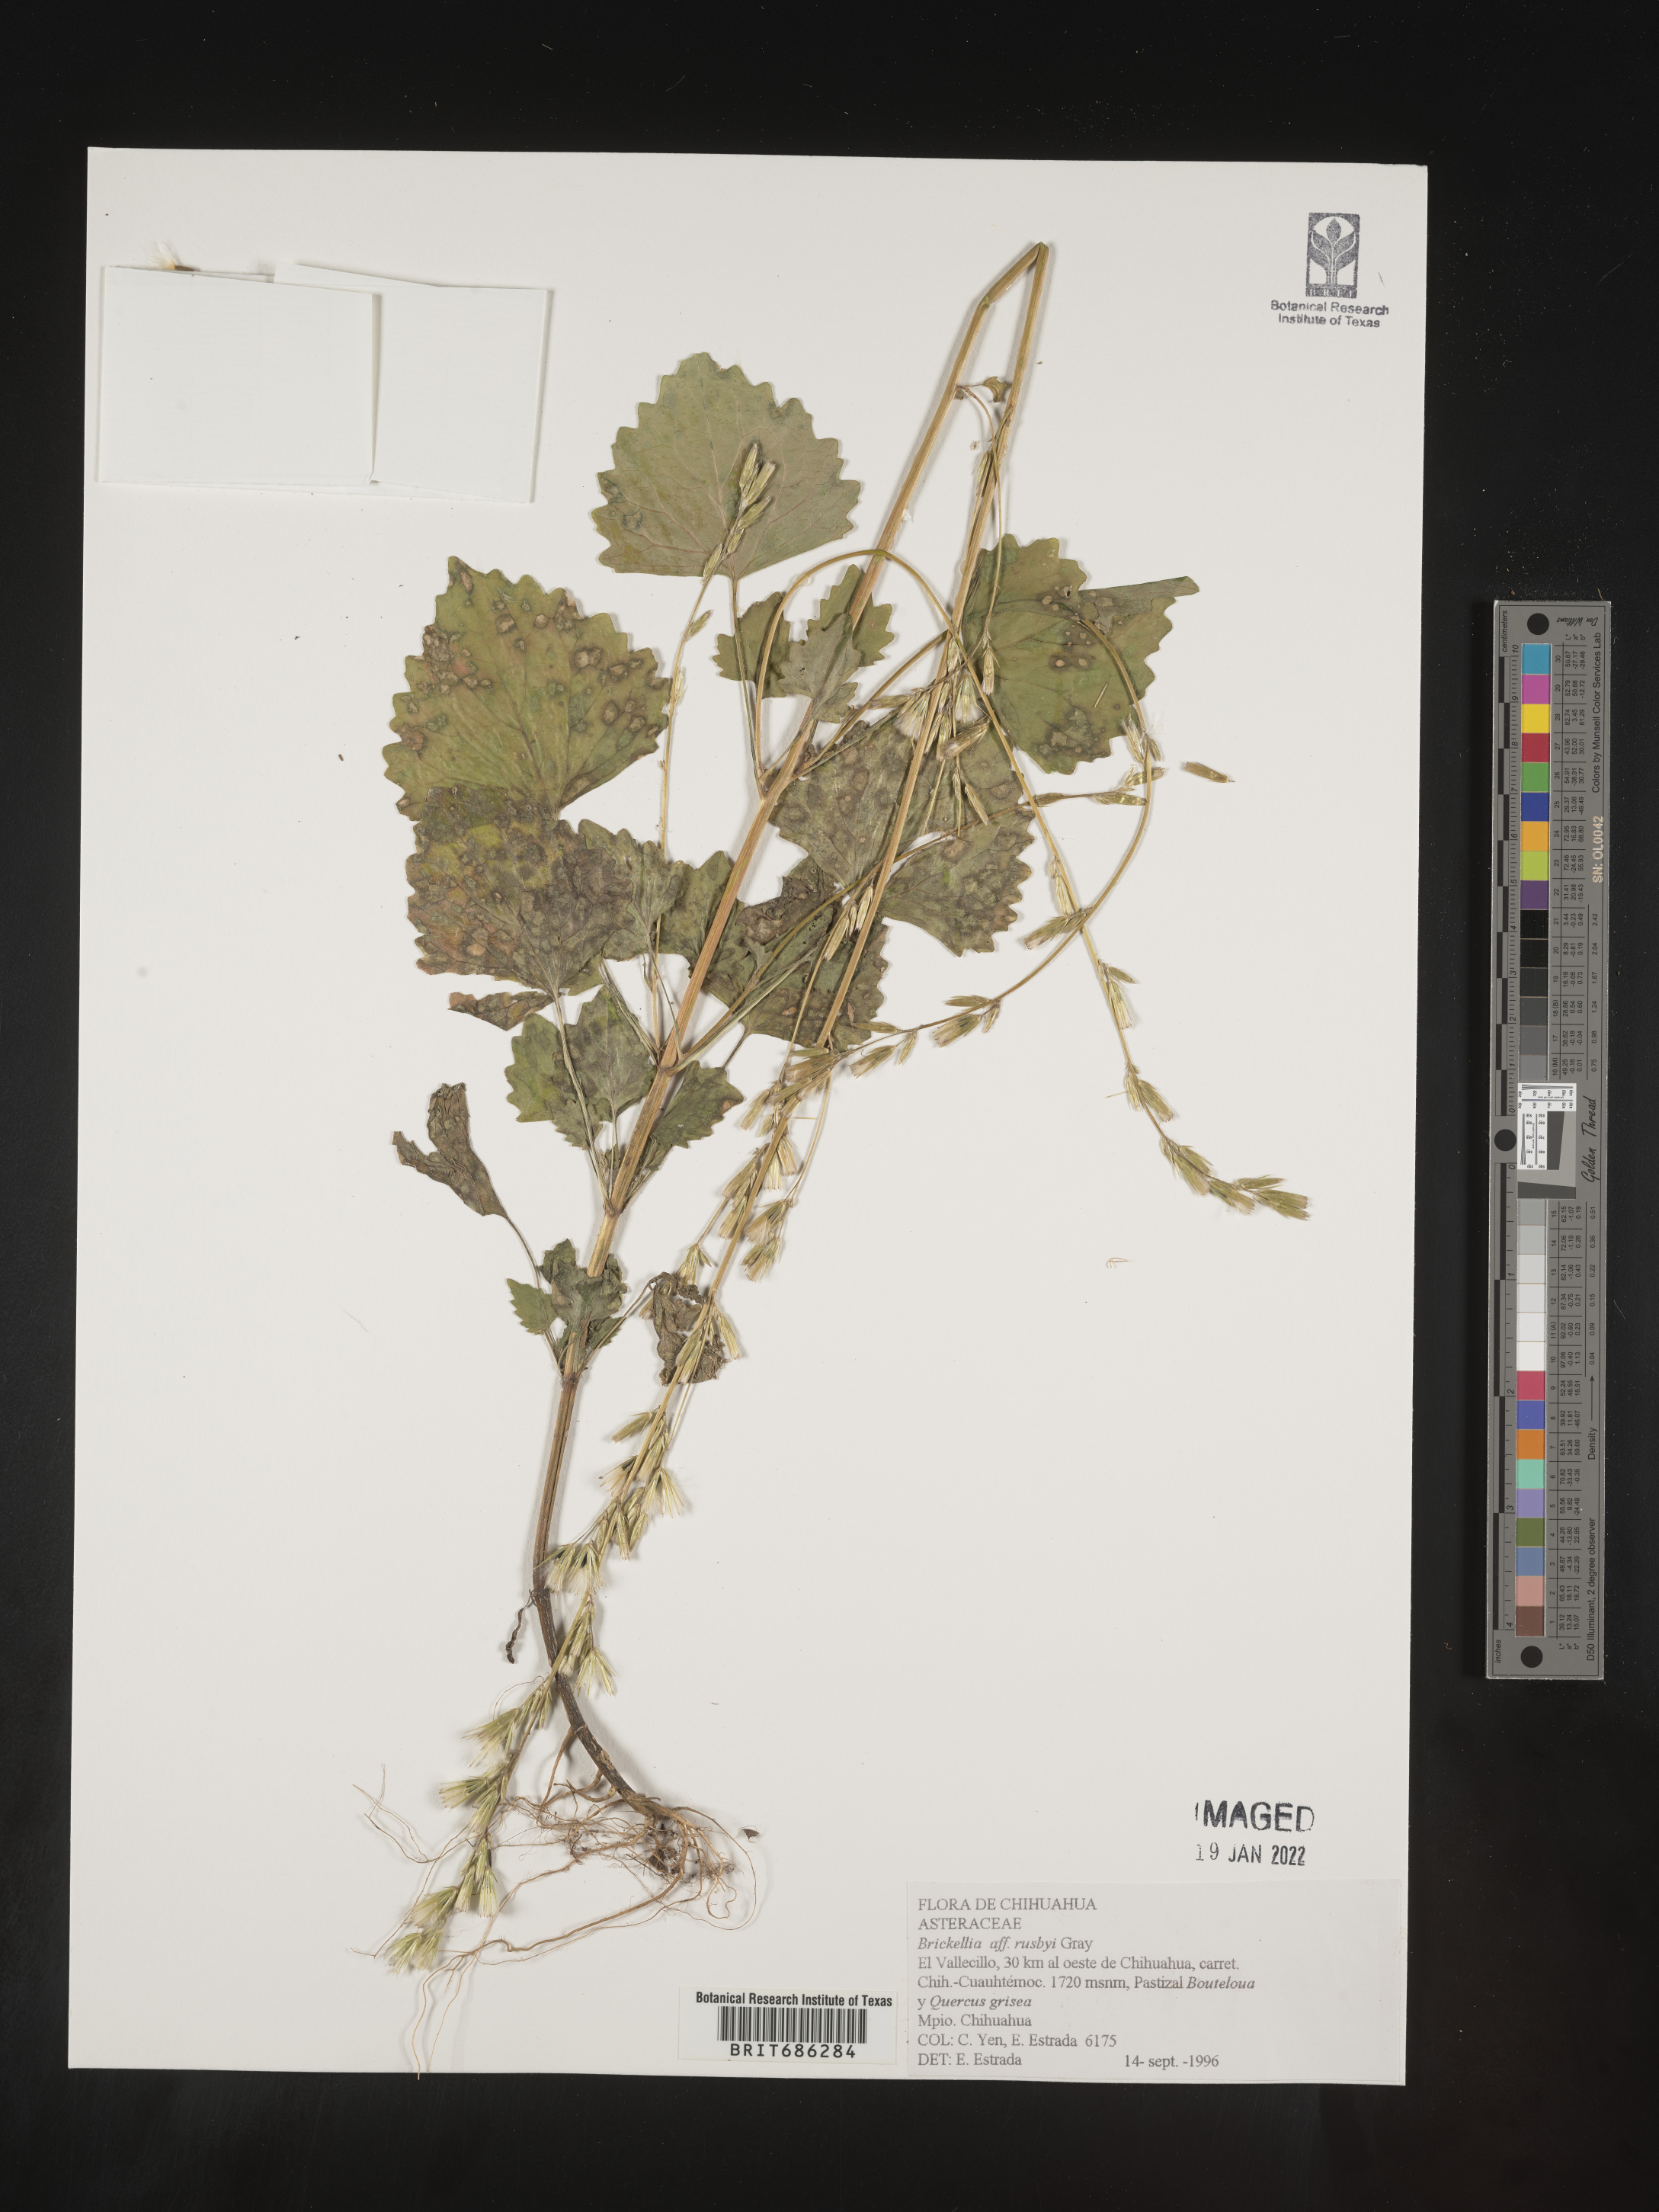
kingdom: Plantae
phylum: Tracheophyta
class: Magnoliopsida
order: Asterales
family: Asteraceae
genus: Brickellia
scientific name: Brickellia
